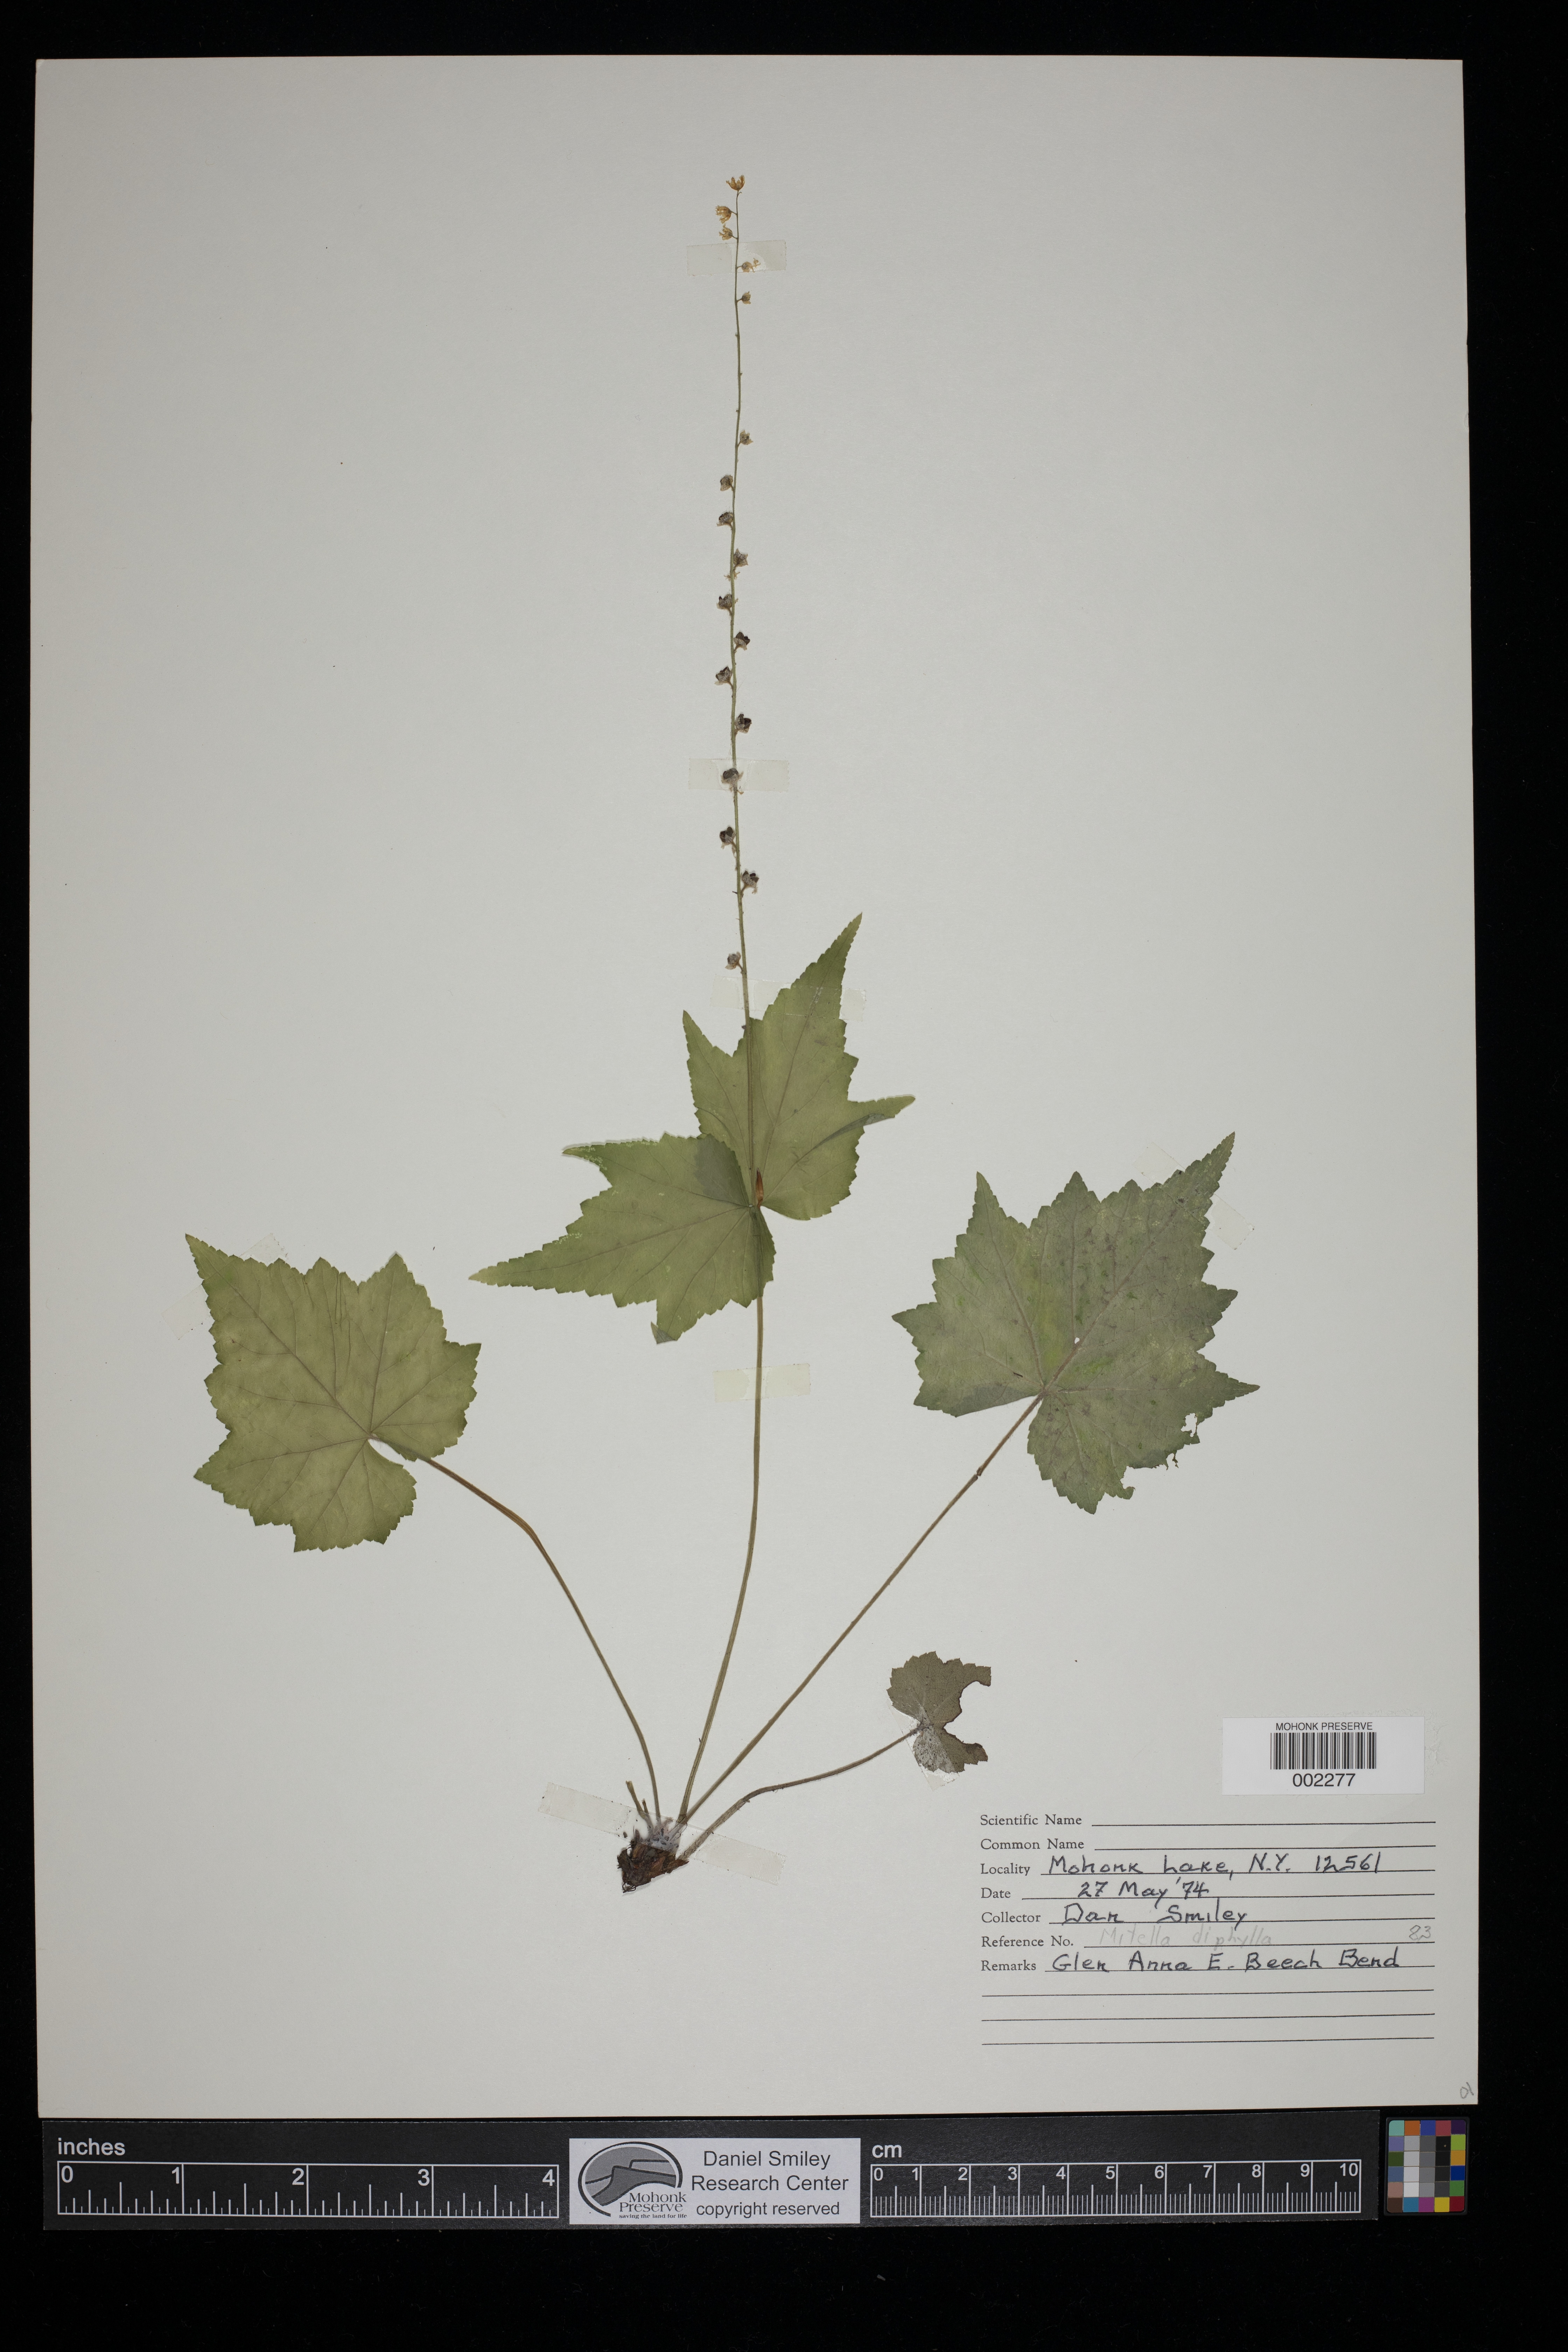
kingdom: Plantae
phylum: Tracheophyta
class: Magnoliopsida
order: Saxifragales
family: Saxifragaceae
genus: Mitella
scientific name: Mitella diphylla
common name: Coolwort
